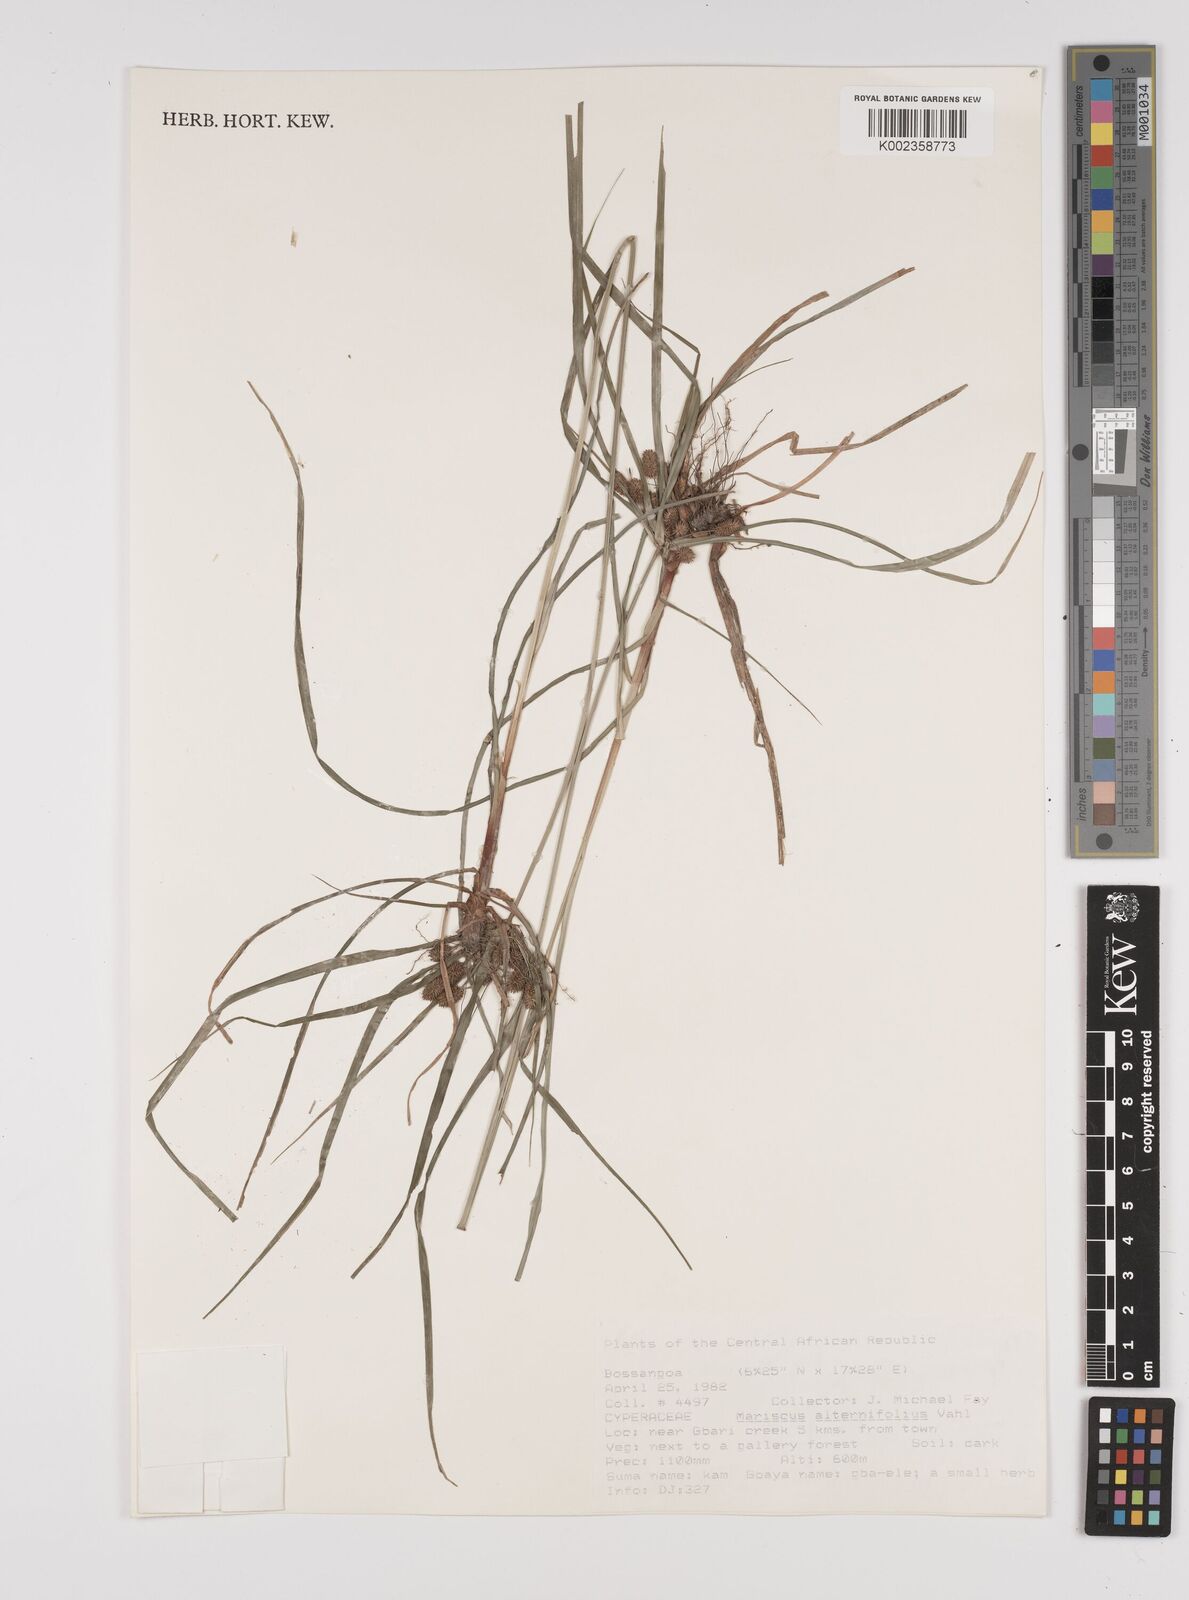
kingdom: Plantae
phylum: Tracheophyta
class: Liliopsida
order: Poales
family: Cyperaceae
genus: Cyperus
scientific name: Cyperus alternifolius
